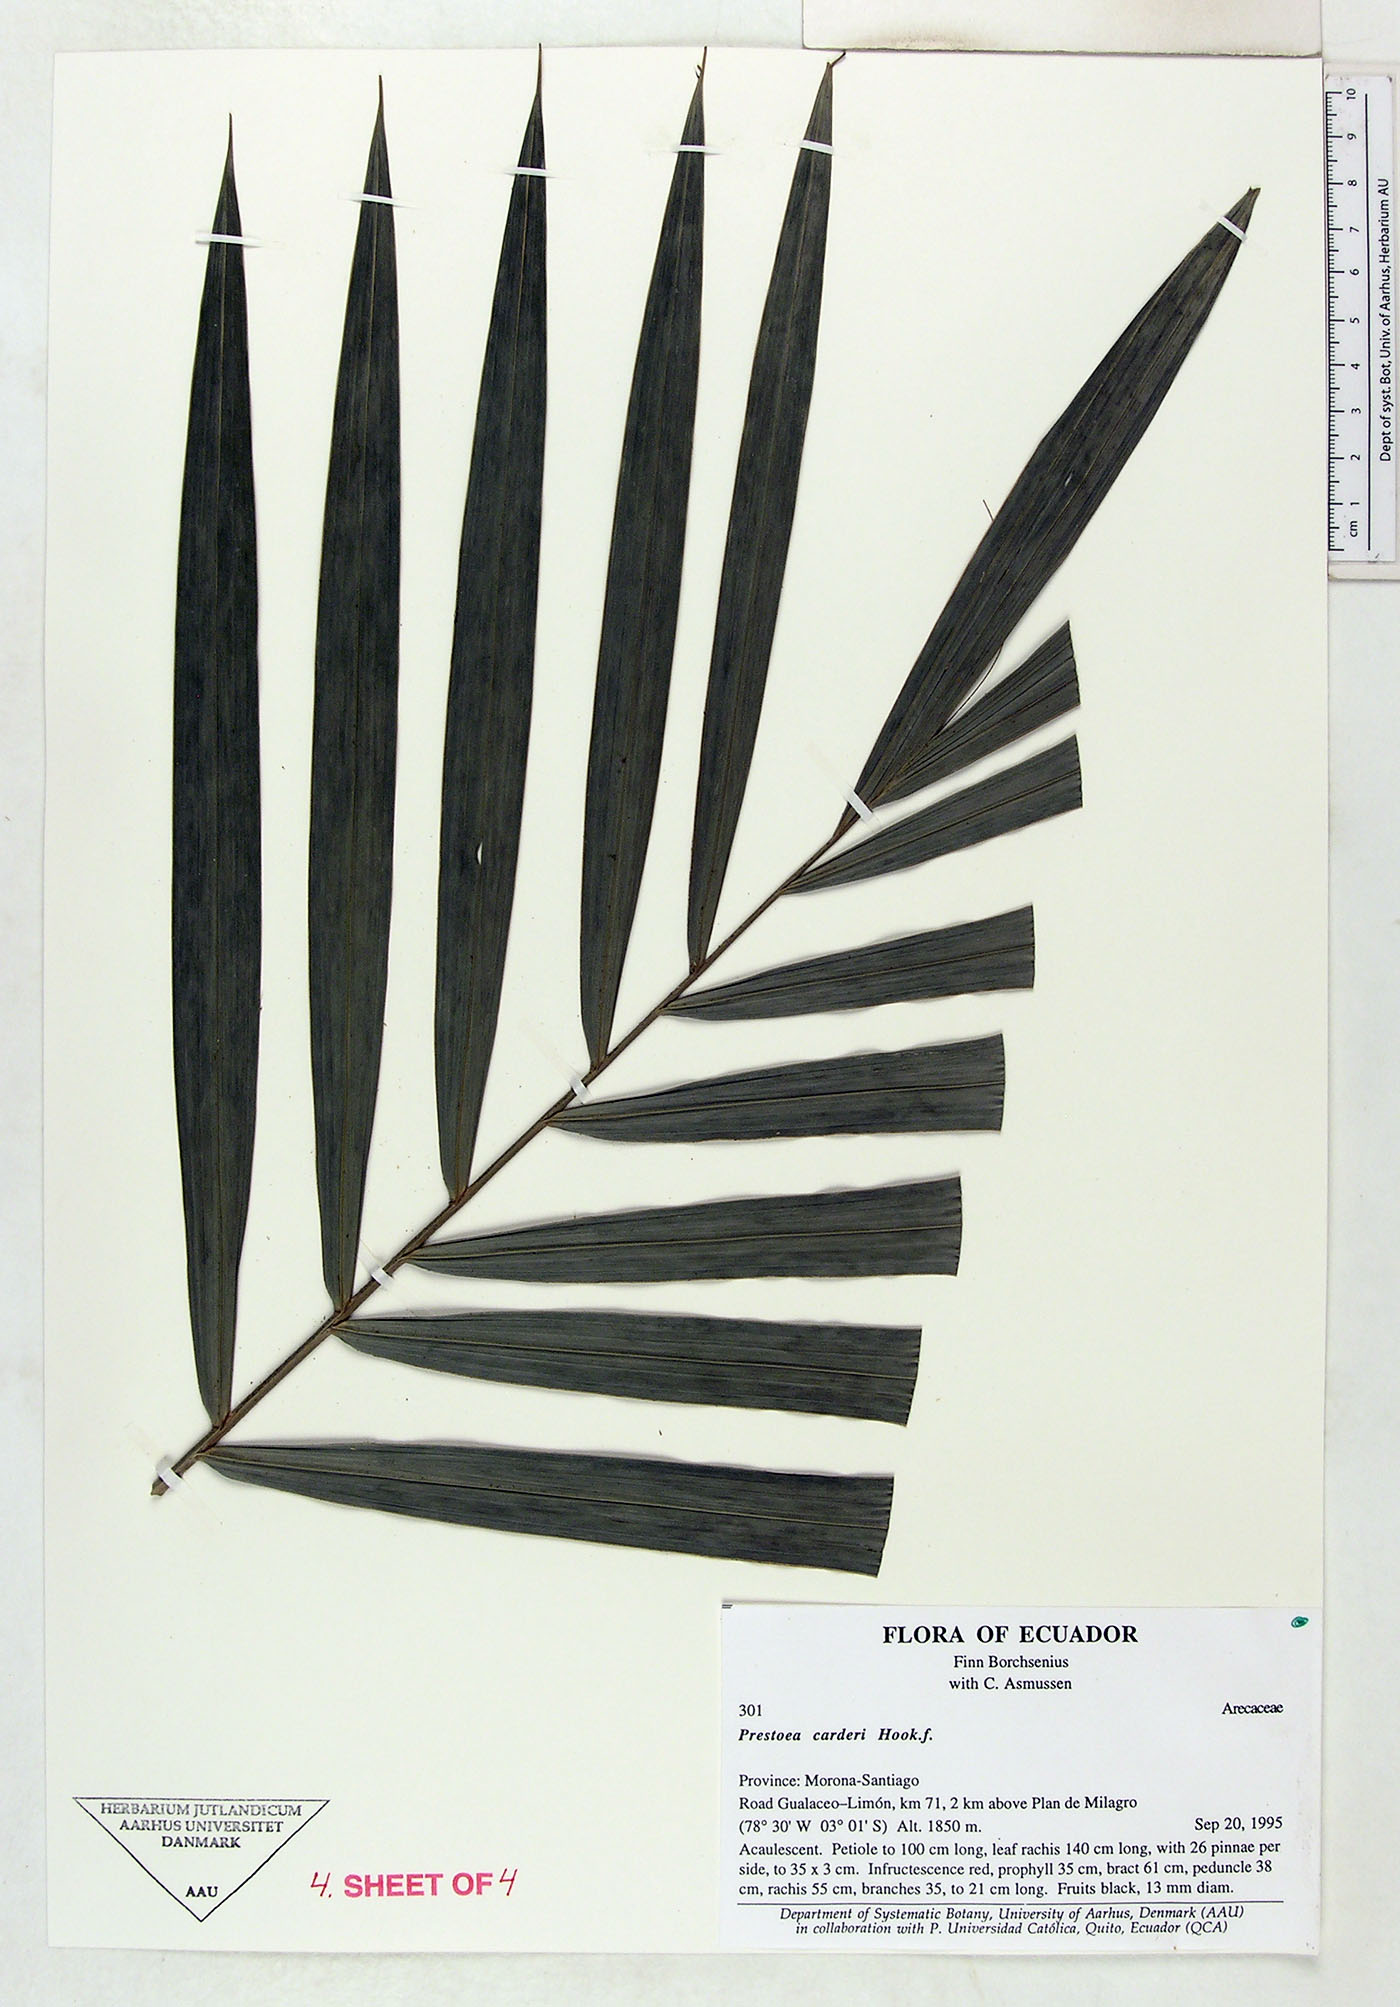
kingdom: Plantae
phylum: Tracheophyta
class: Liliopsida
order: Arecales
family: Arecaceae
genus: Prestoea
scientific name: Prestoea carderi
